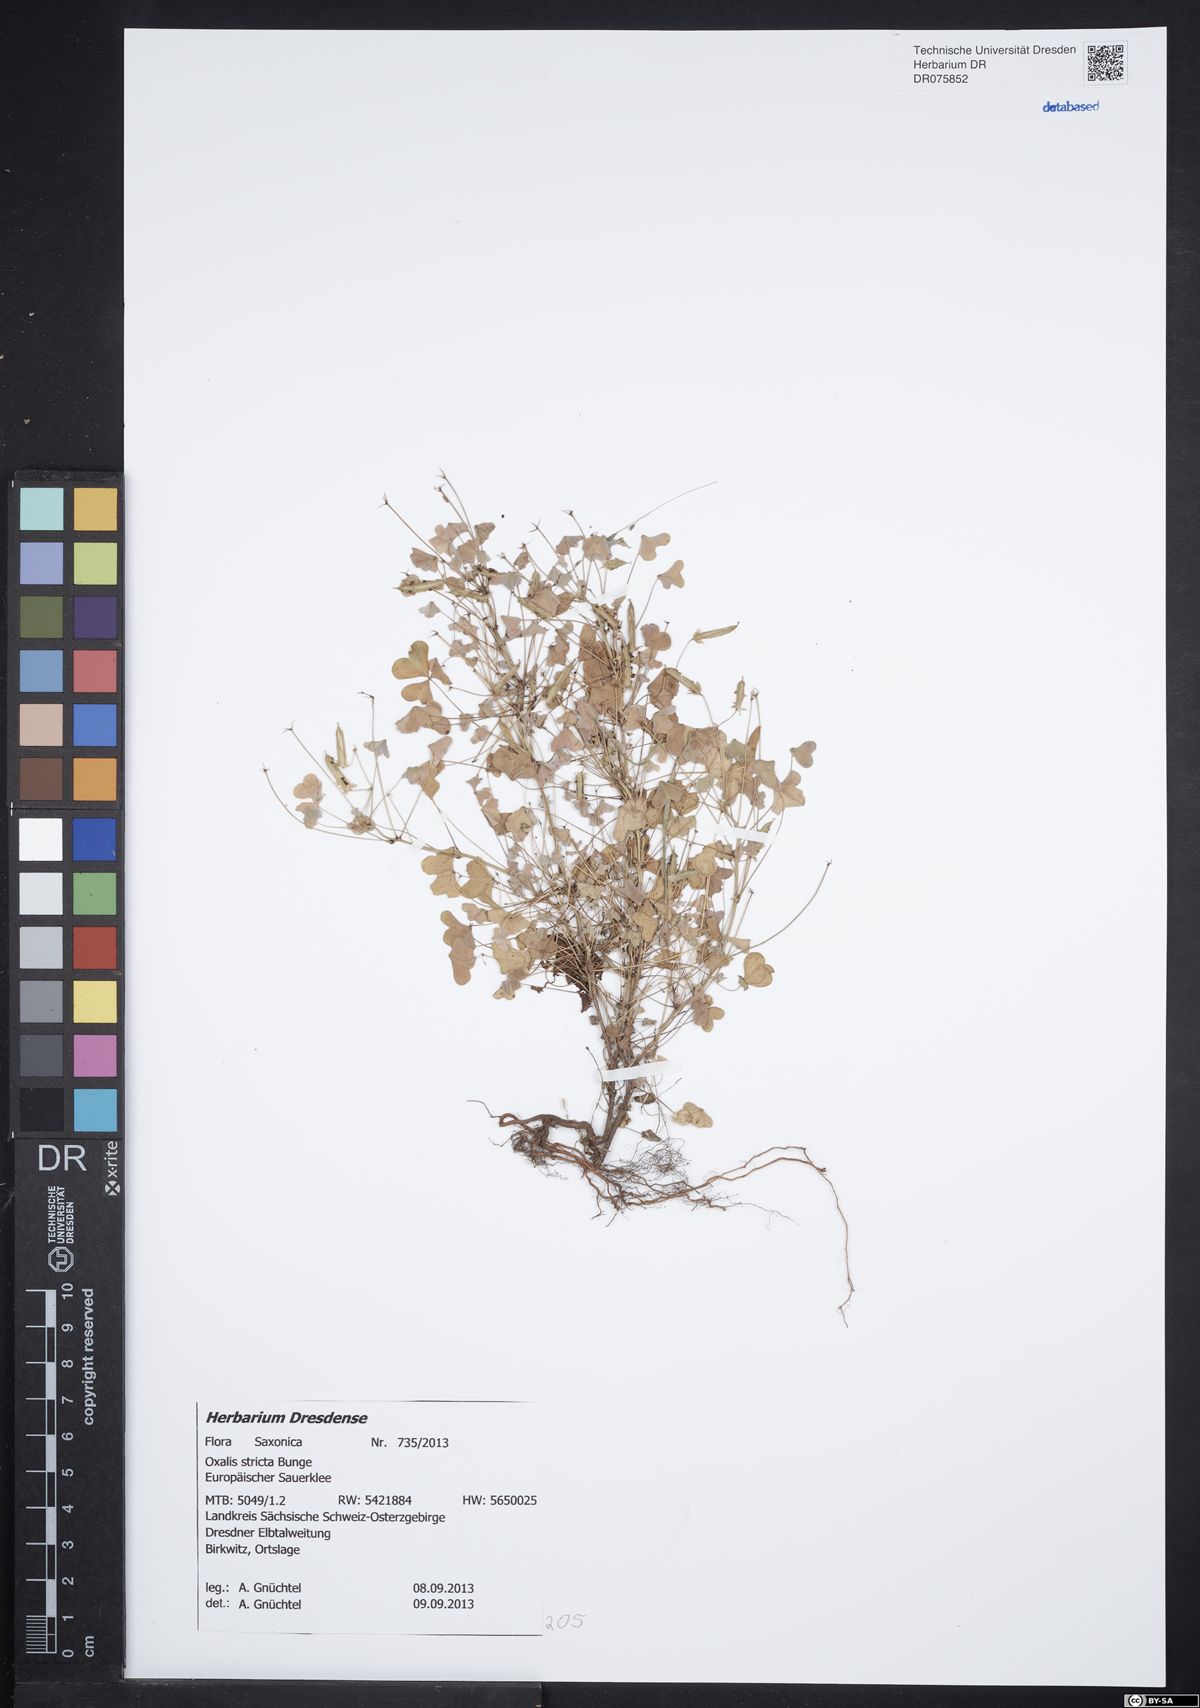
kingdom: Plantae
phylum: Tracheophyta
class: Magnoliopsida
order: Oxalidales
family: Oxalidaceae
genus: Oxalis
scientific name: Oxalis stricta
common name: Upright yellow-sorrel
